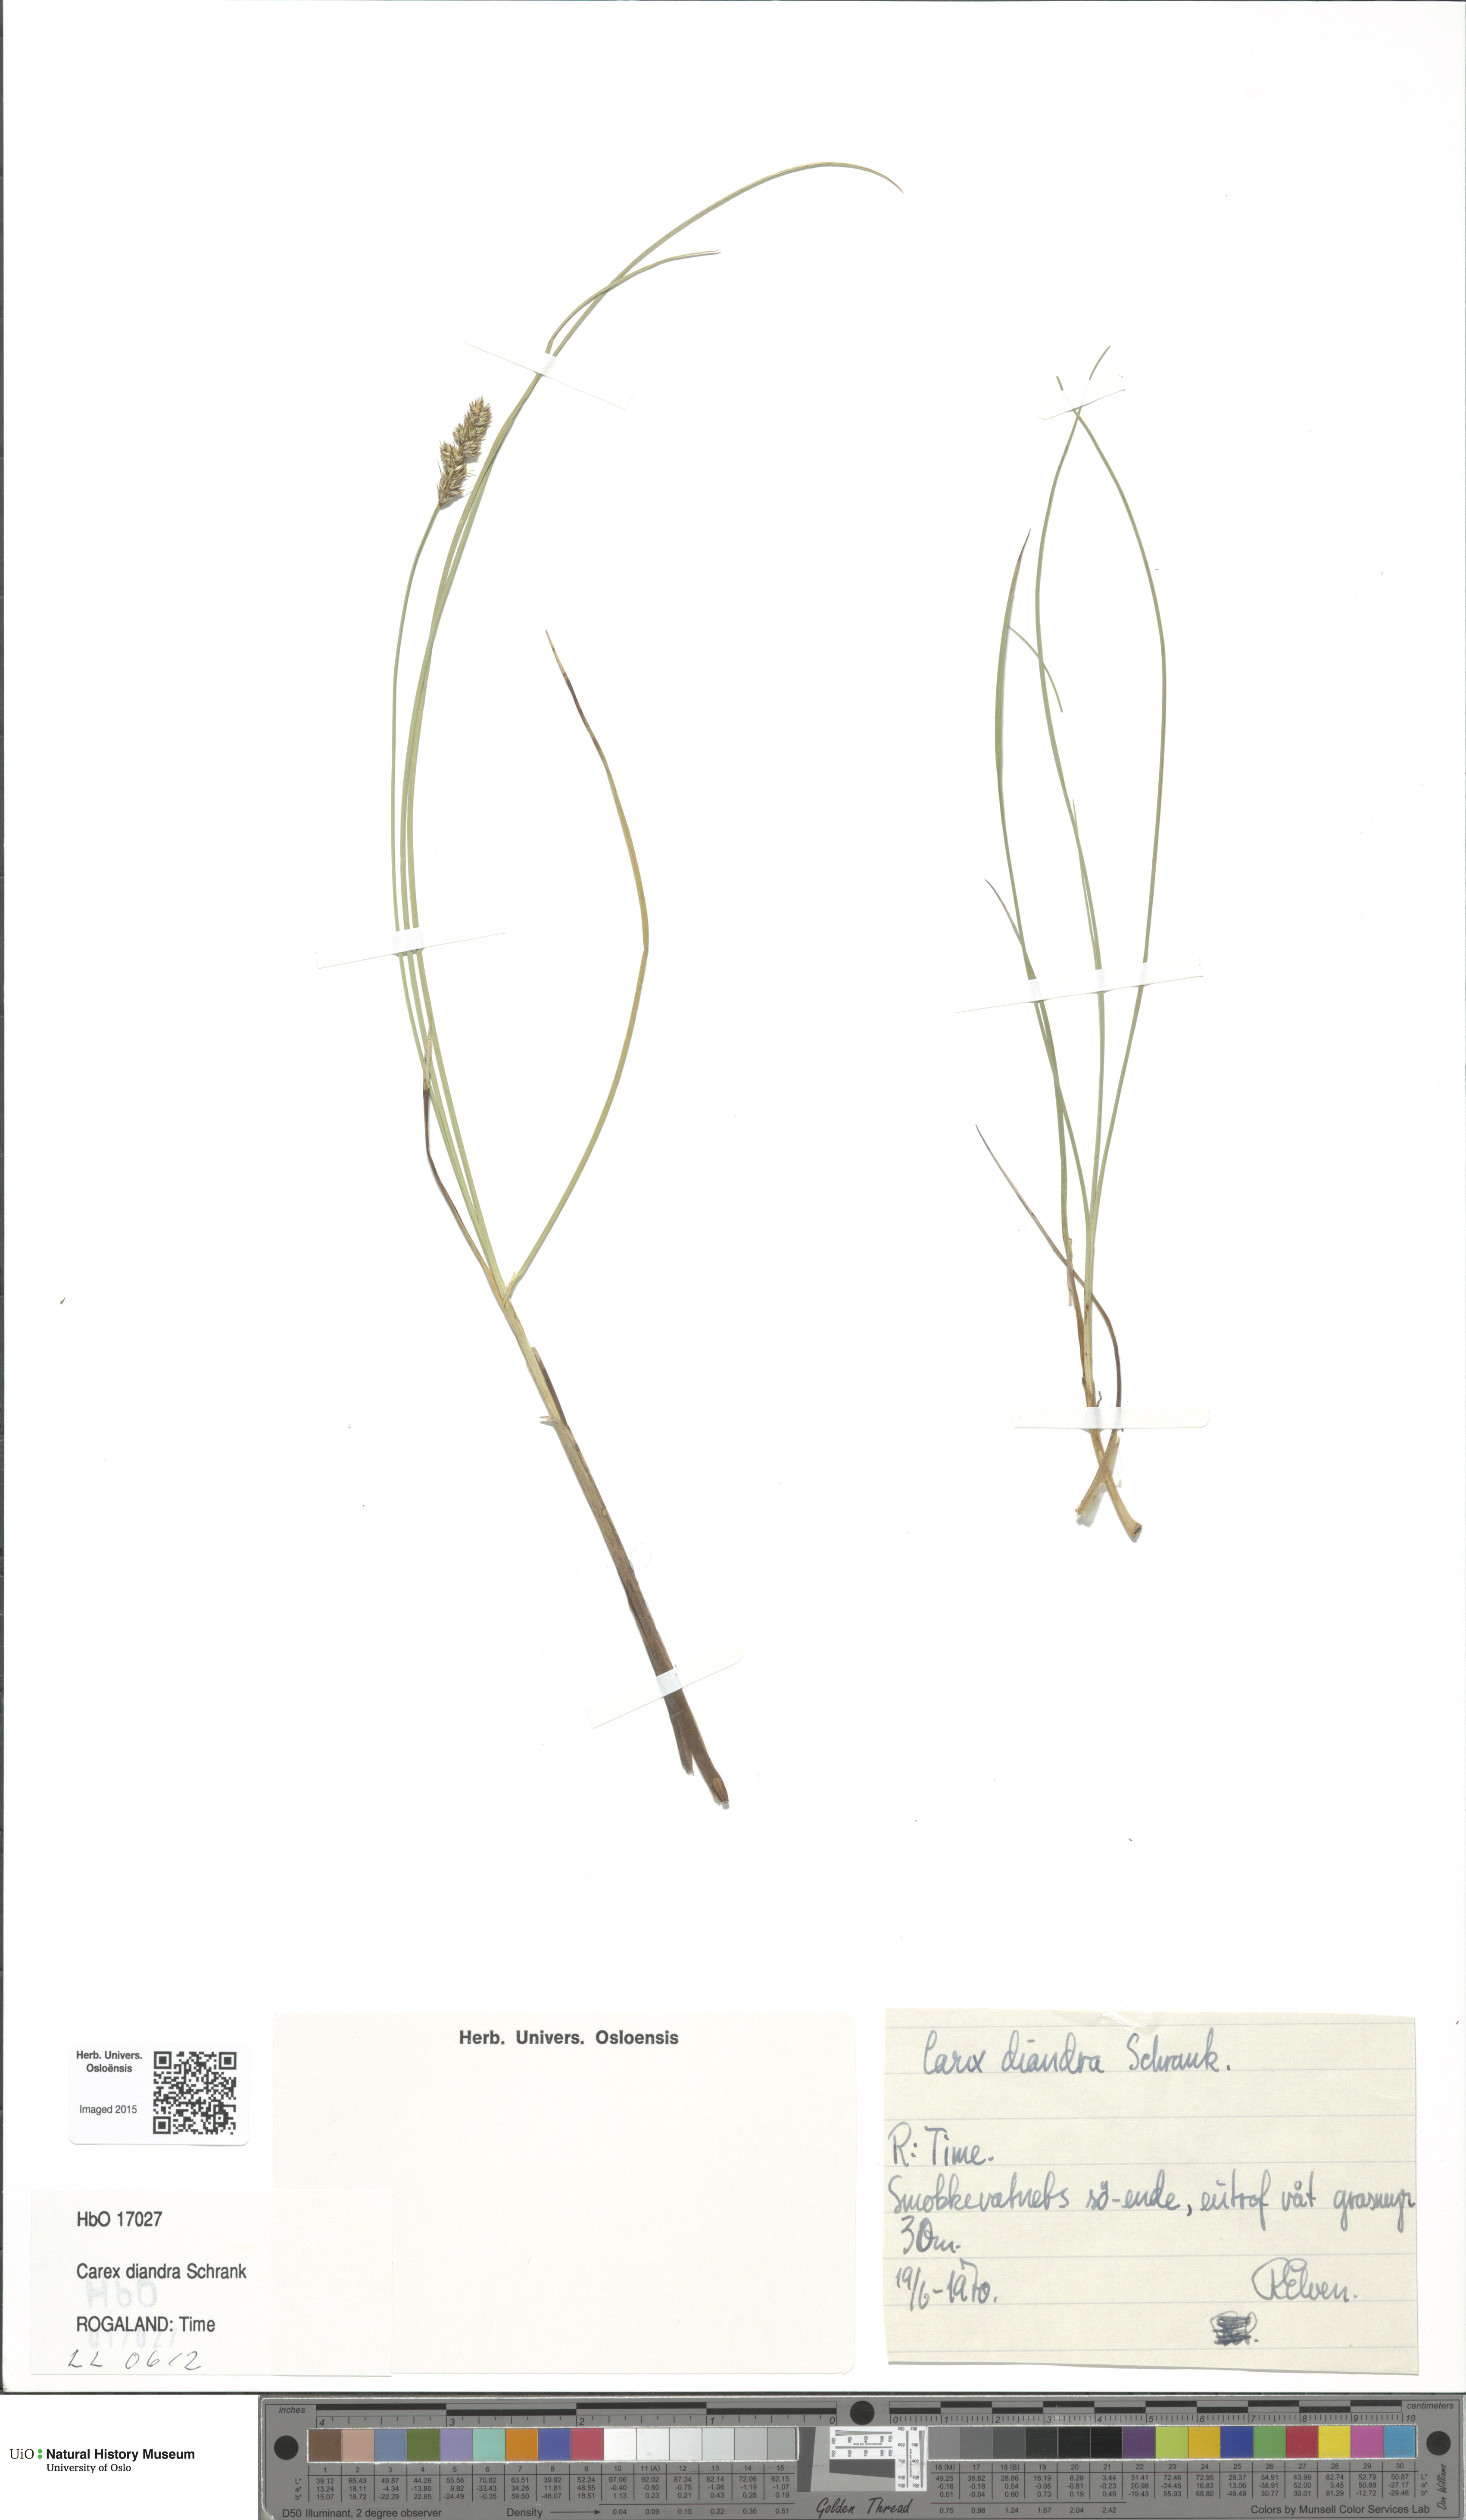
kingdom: Plantae
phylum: Tracheophyta
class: Liliopsida
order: Poales
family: Cyperaceae
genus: Carex
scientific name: Carex diandra
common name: Lesser tussock-sedge
